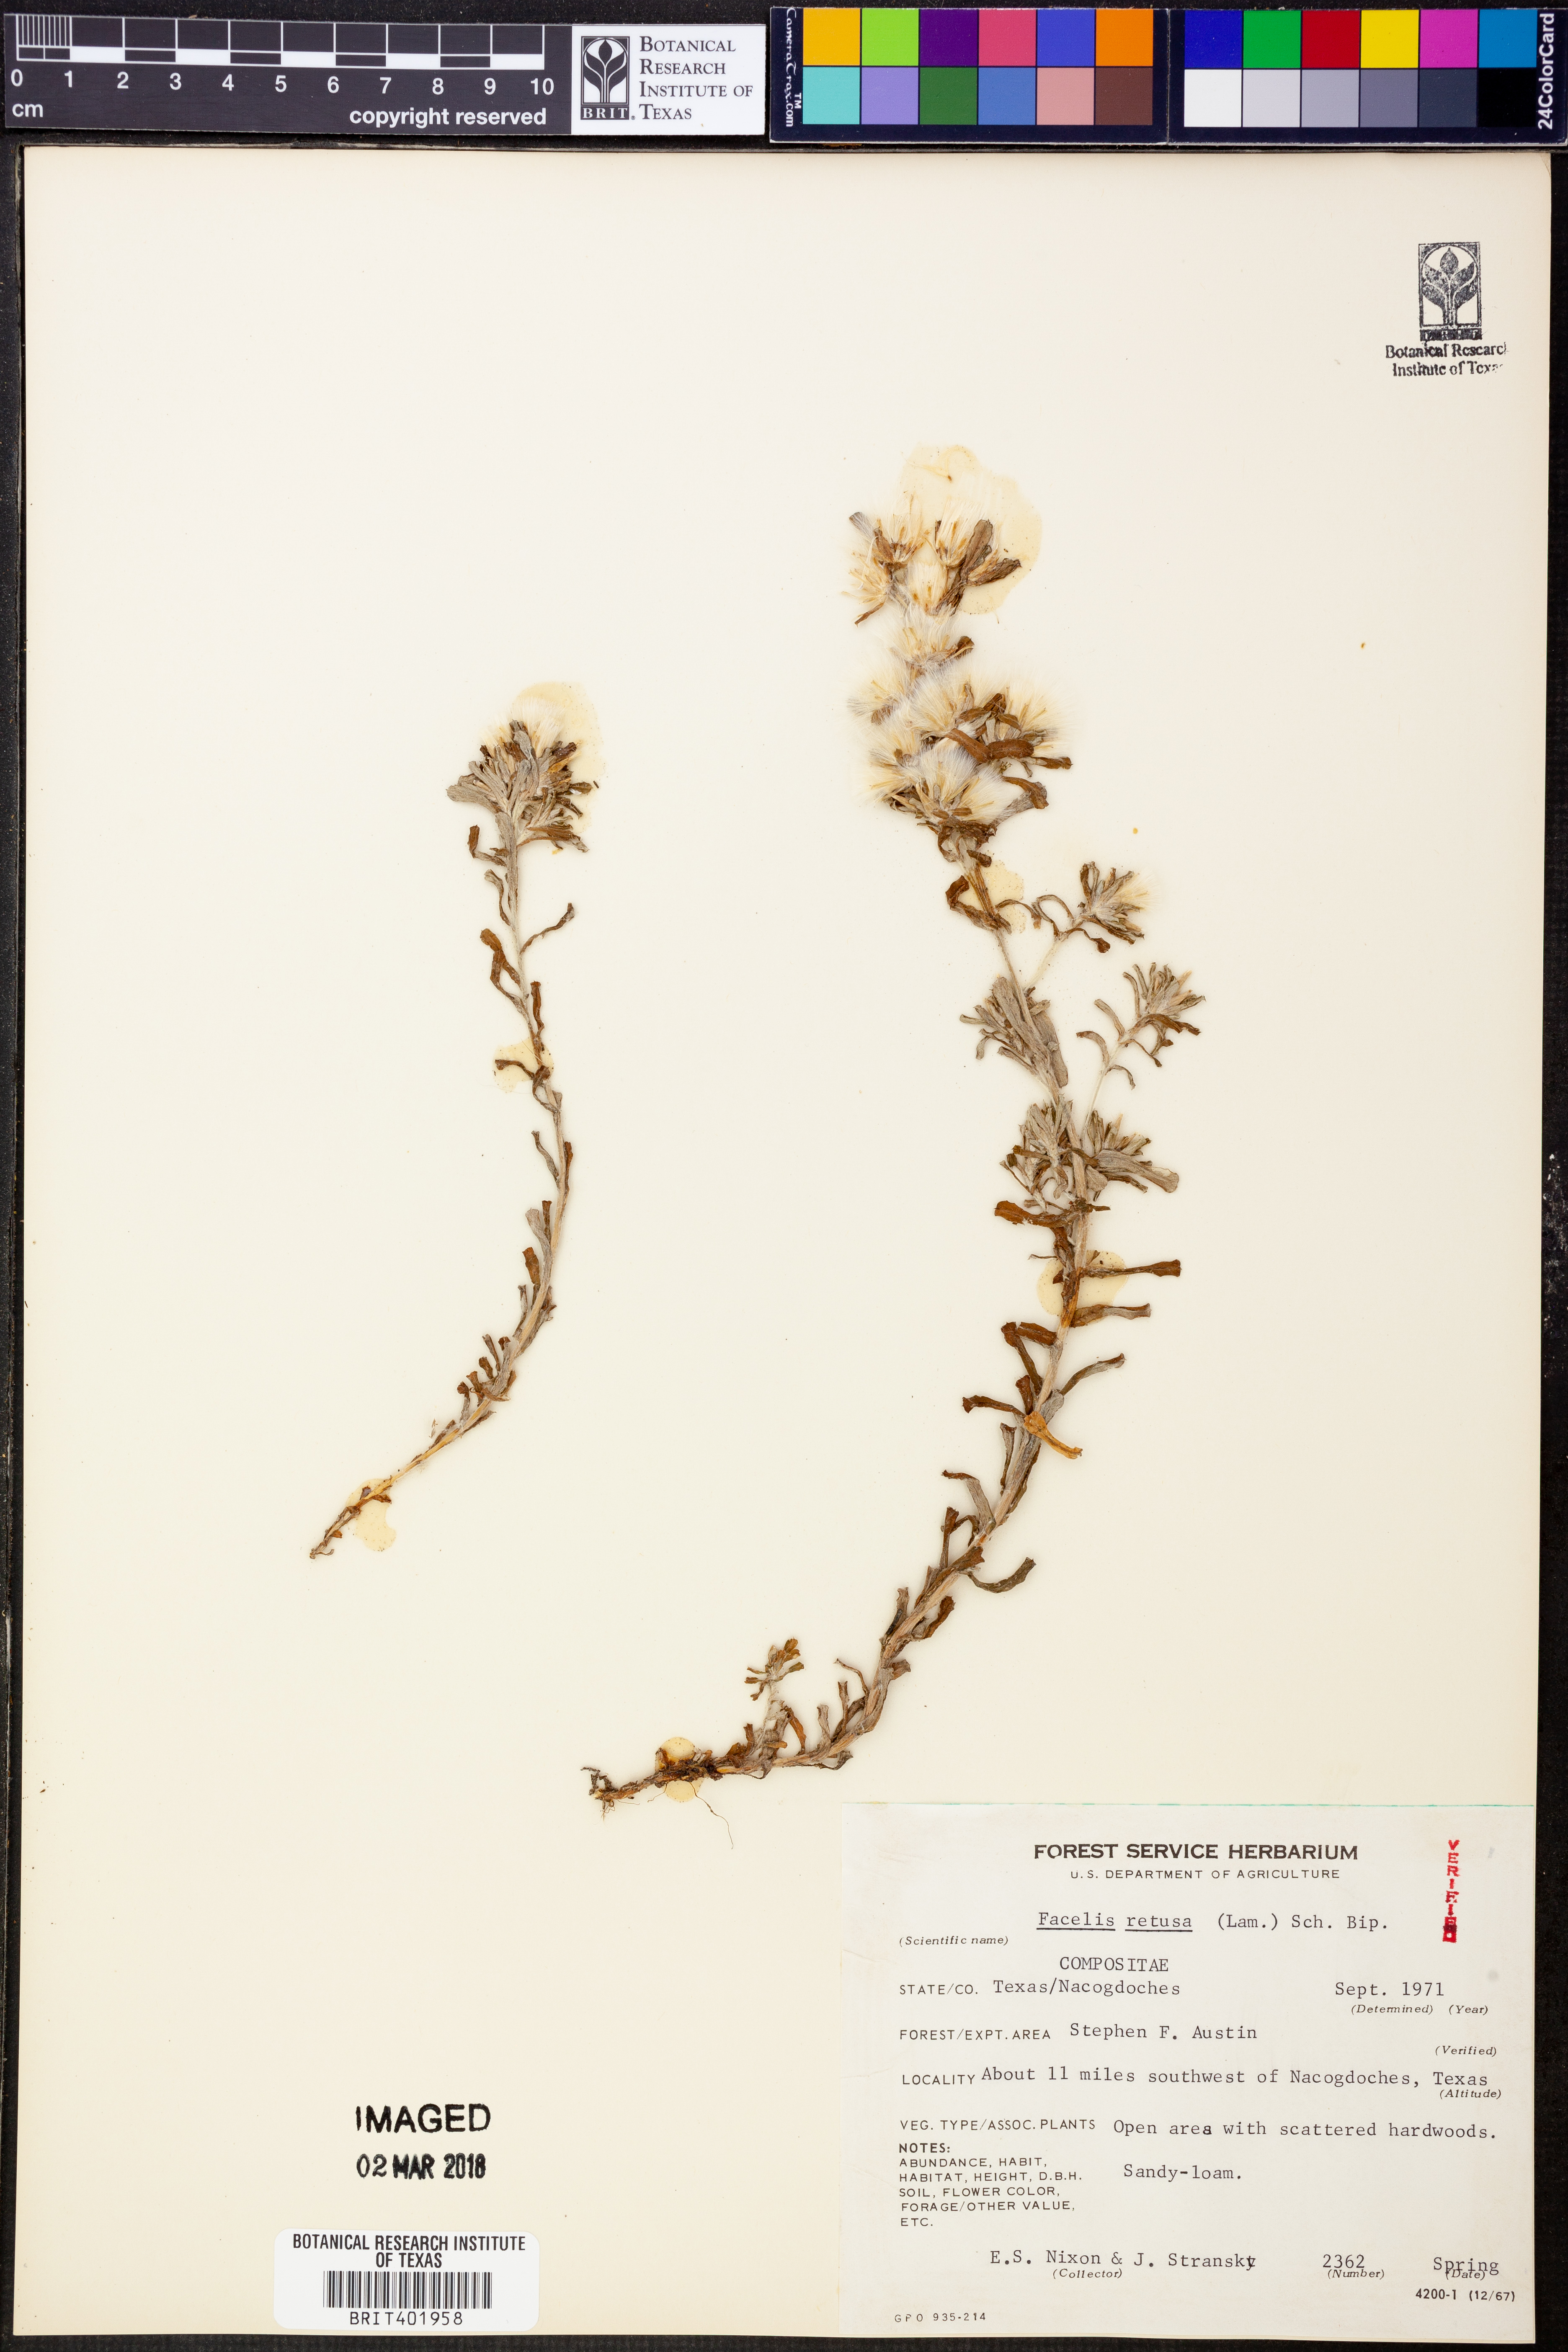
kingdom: Plantae
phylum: Tracheophyta
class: Magnoliopsida
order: Asterales
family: Asteraceae
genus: Facelis
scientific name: Facelis retusa
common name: Annual trampweed
